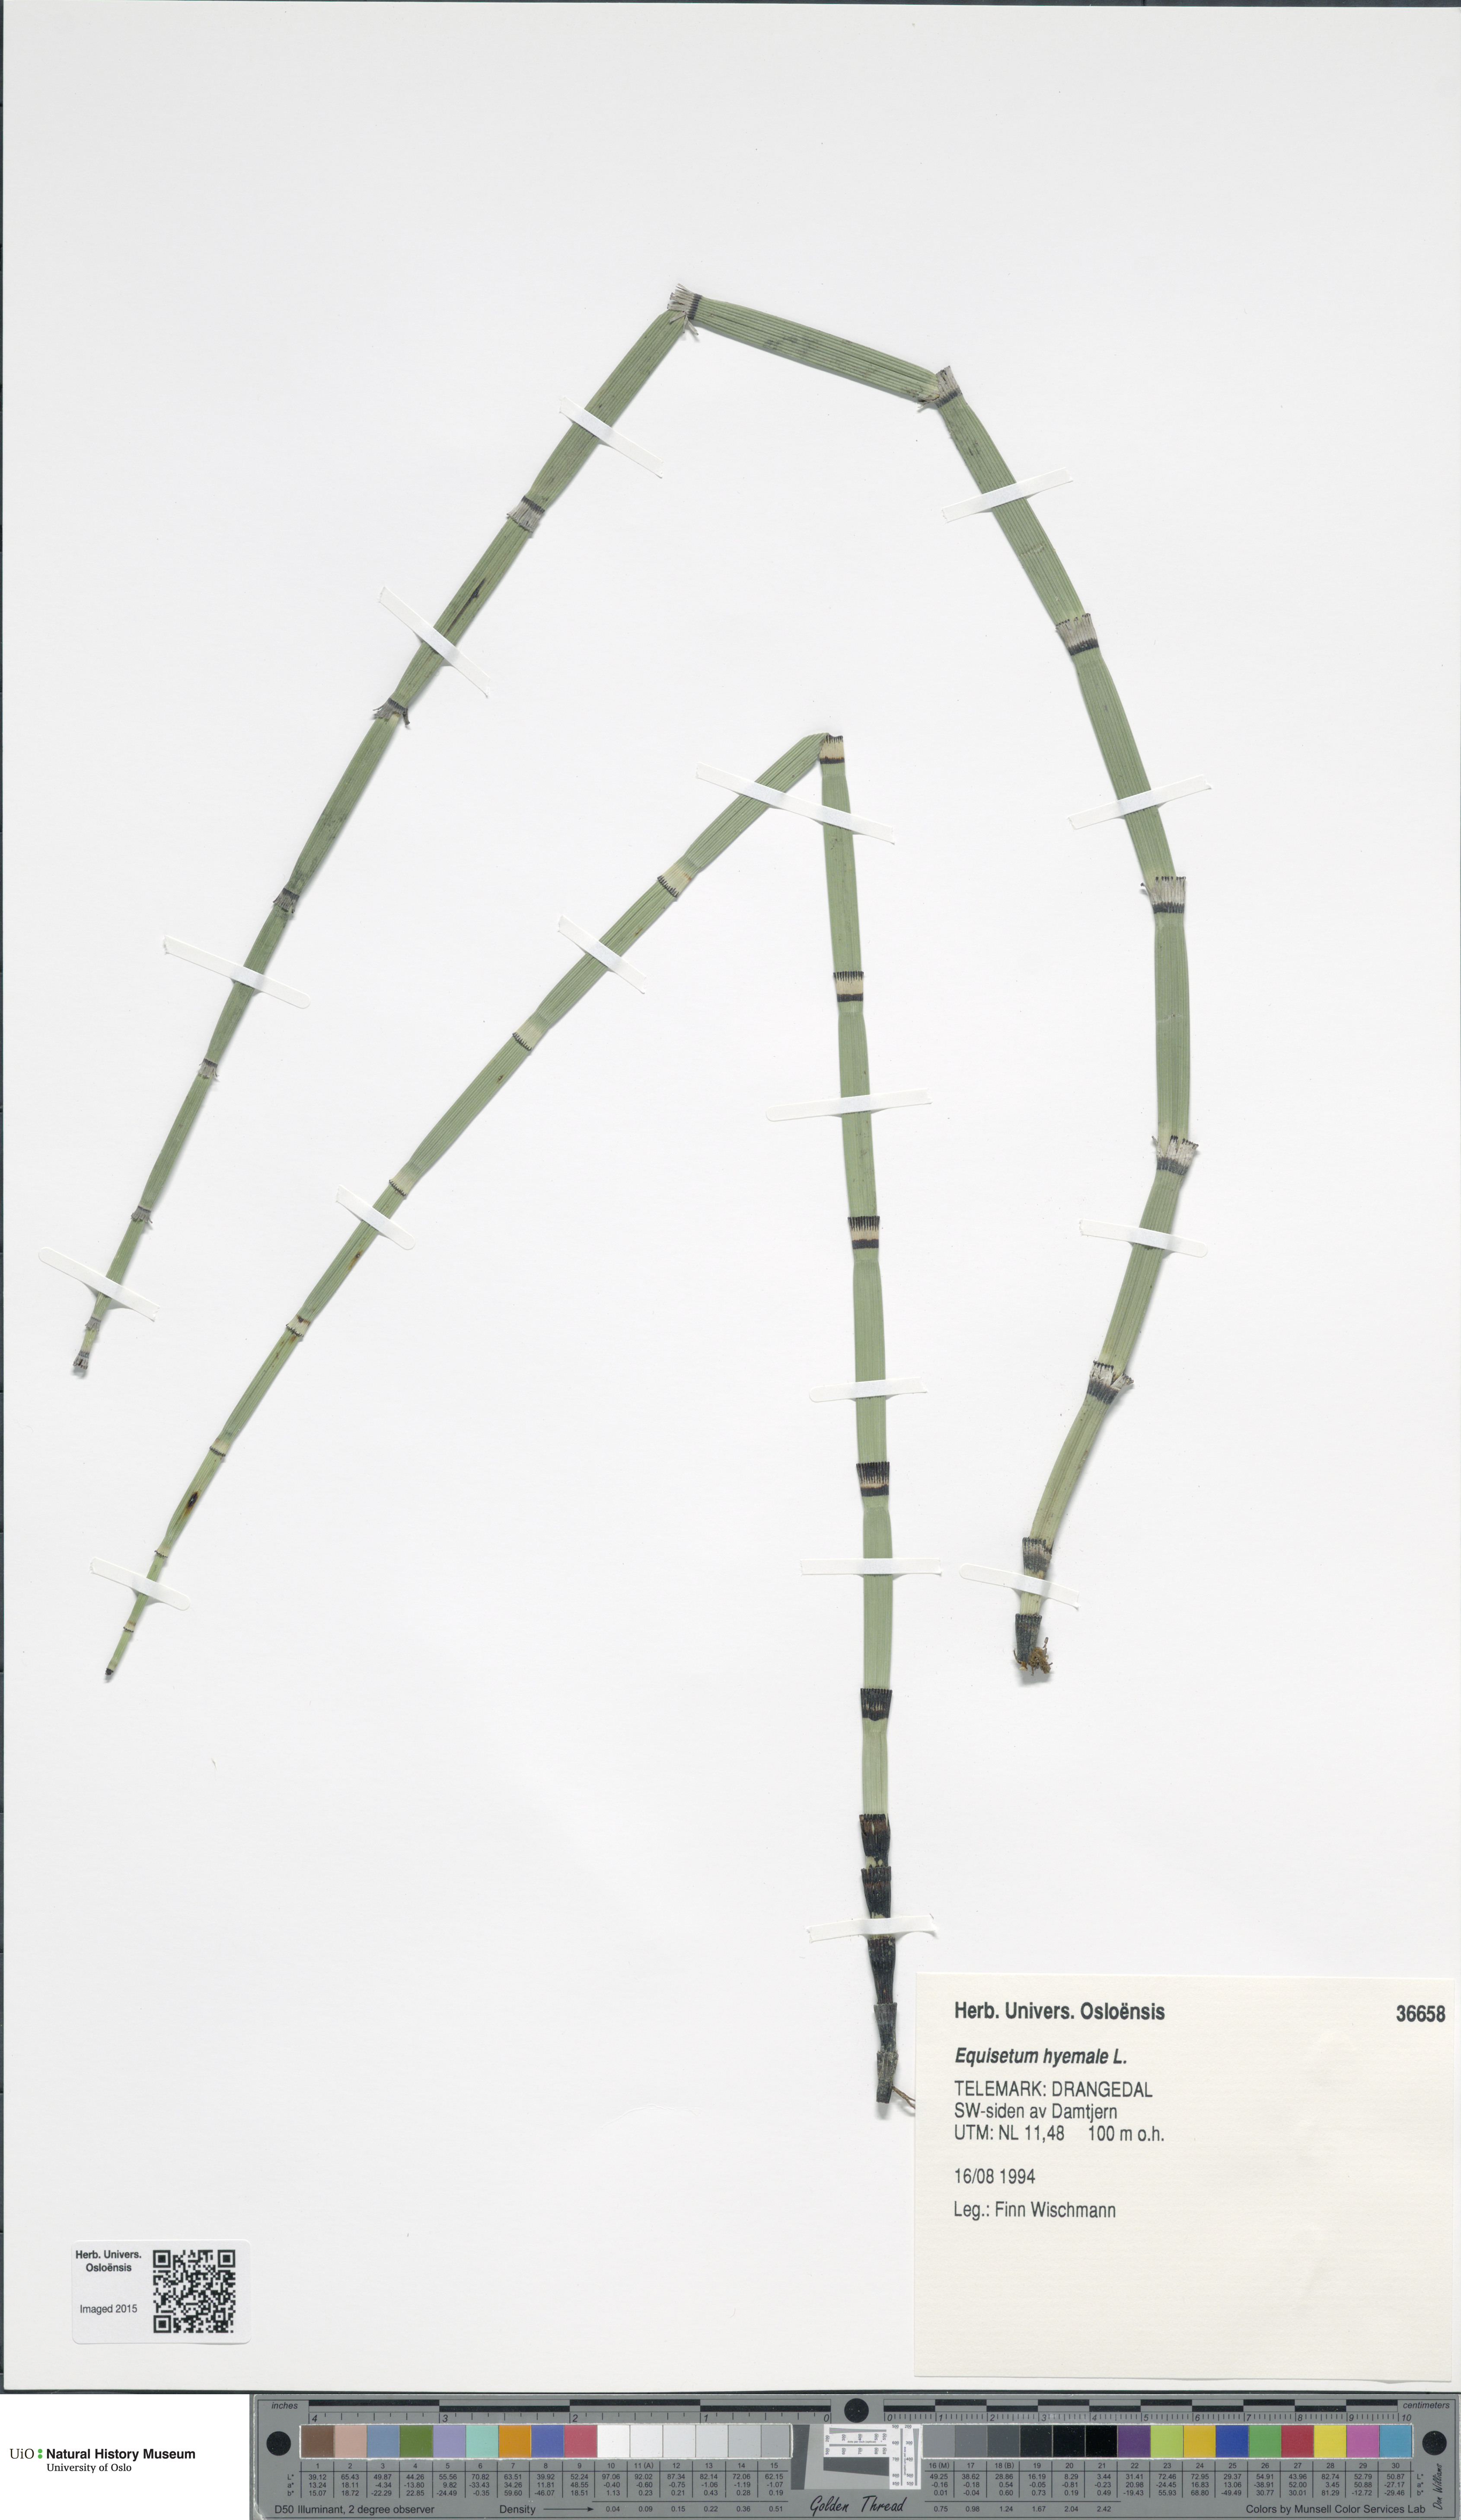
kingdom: Plantae
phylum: Tracheophyta
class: Polypodiopsida
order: Equisetales
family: Equisetaceae
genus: Equisetum
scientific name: Equisetum hyemale
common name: Rough horsetail
